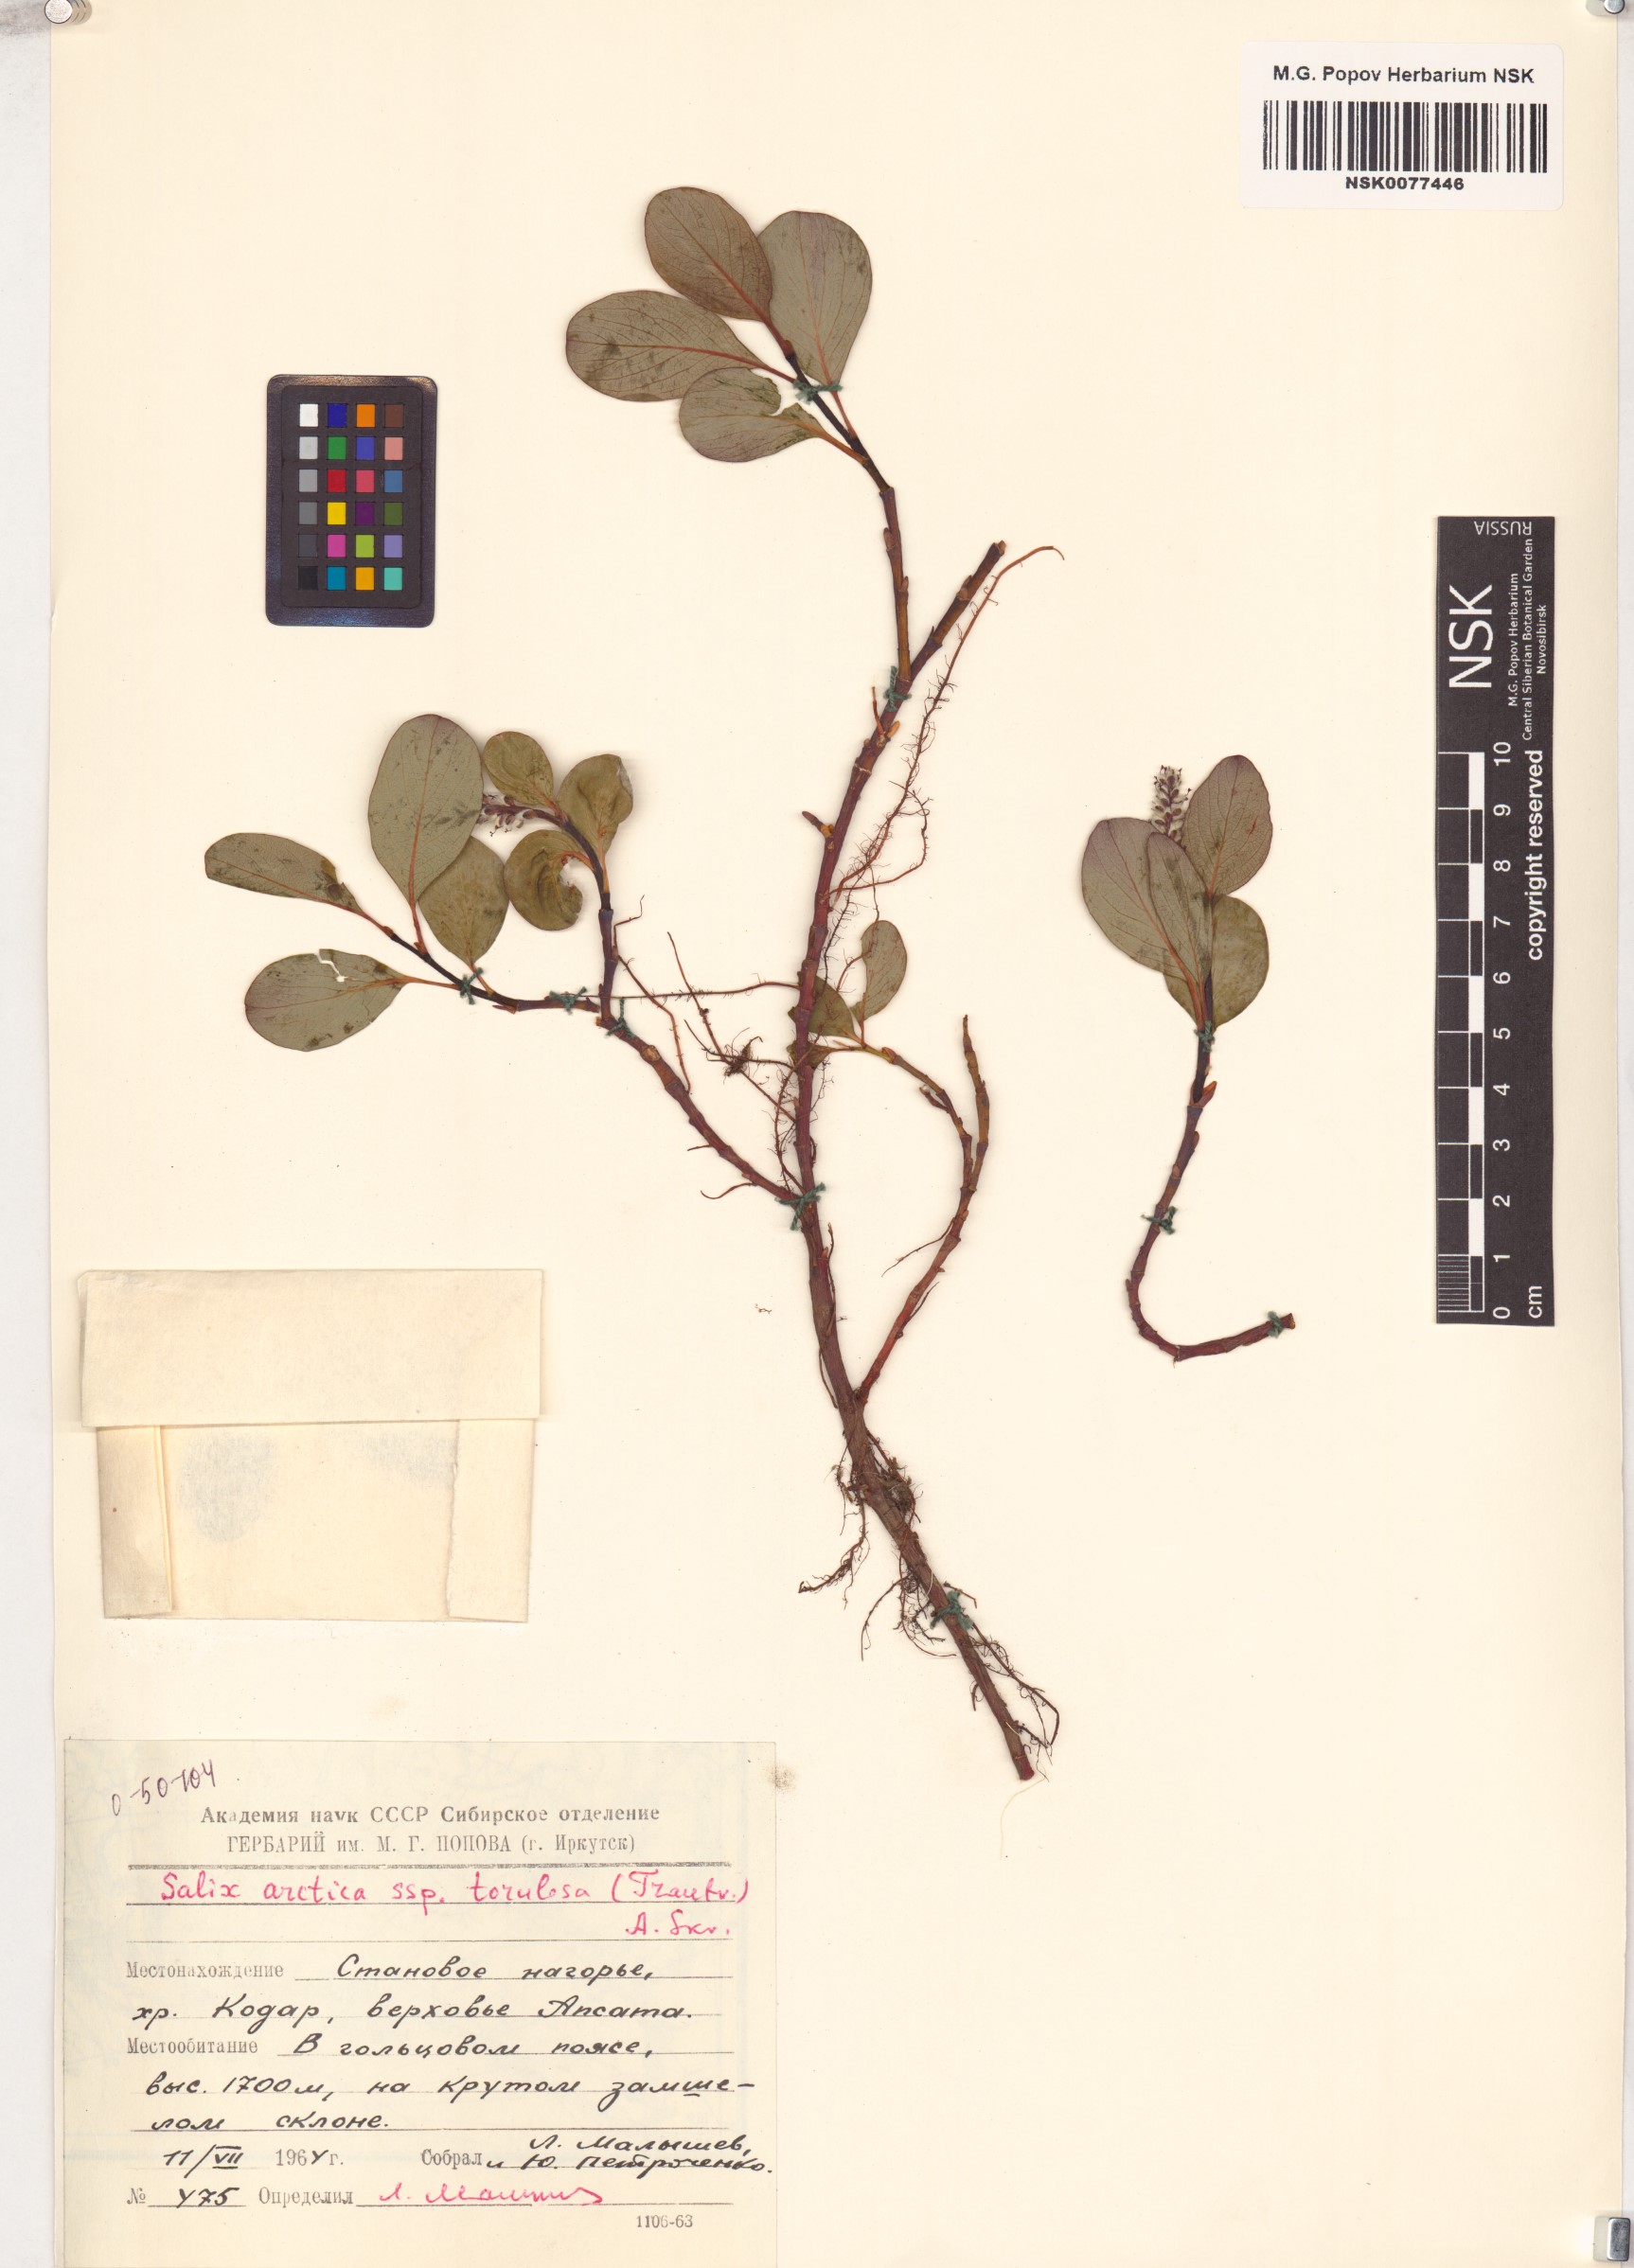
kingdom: Plantae
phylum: Tracheophyta
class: Magnoliopsida
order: Malpighiales
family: Salicaceae
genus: Salix
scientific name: Salix arctica
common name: Arctic willow
